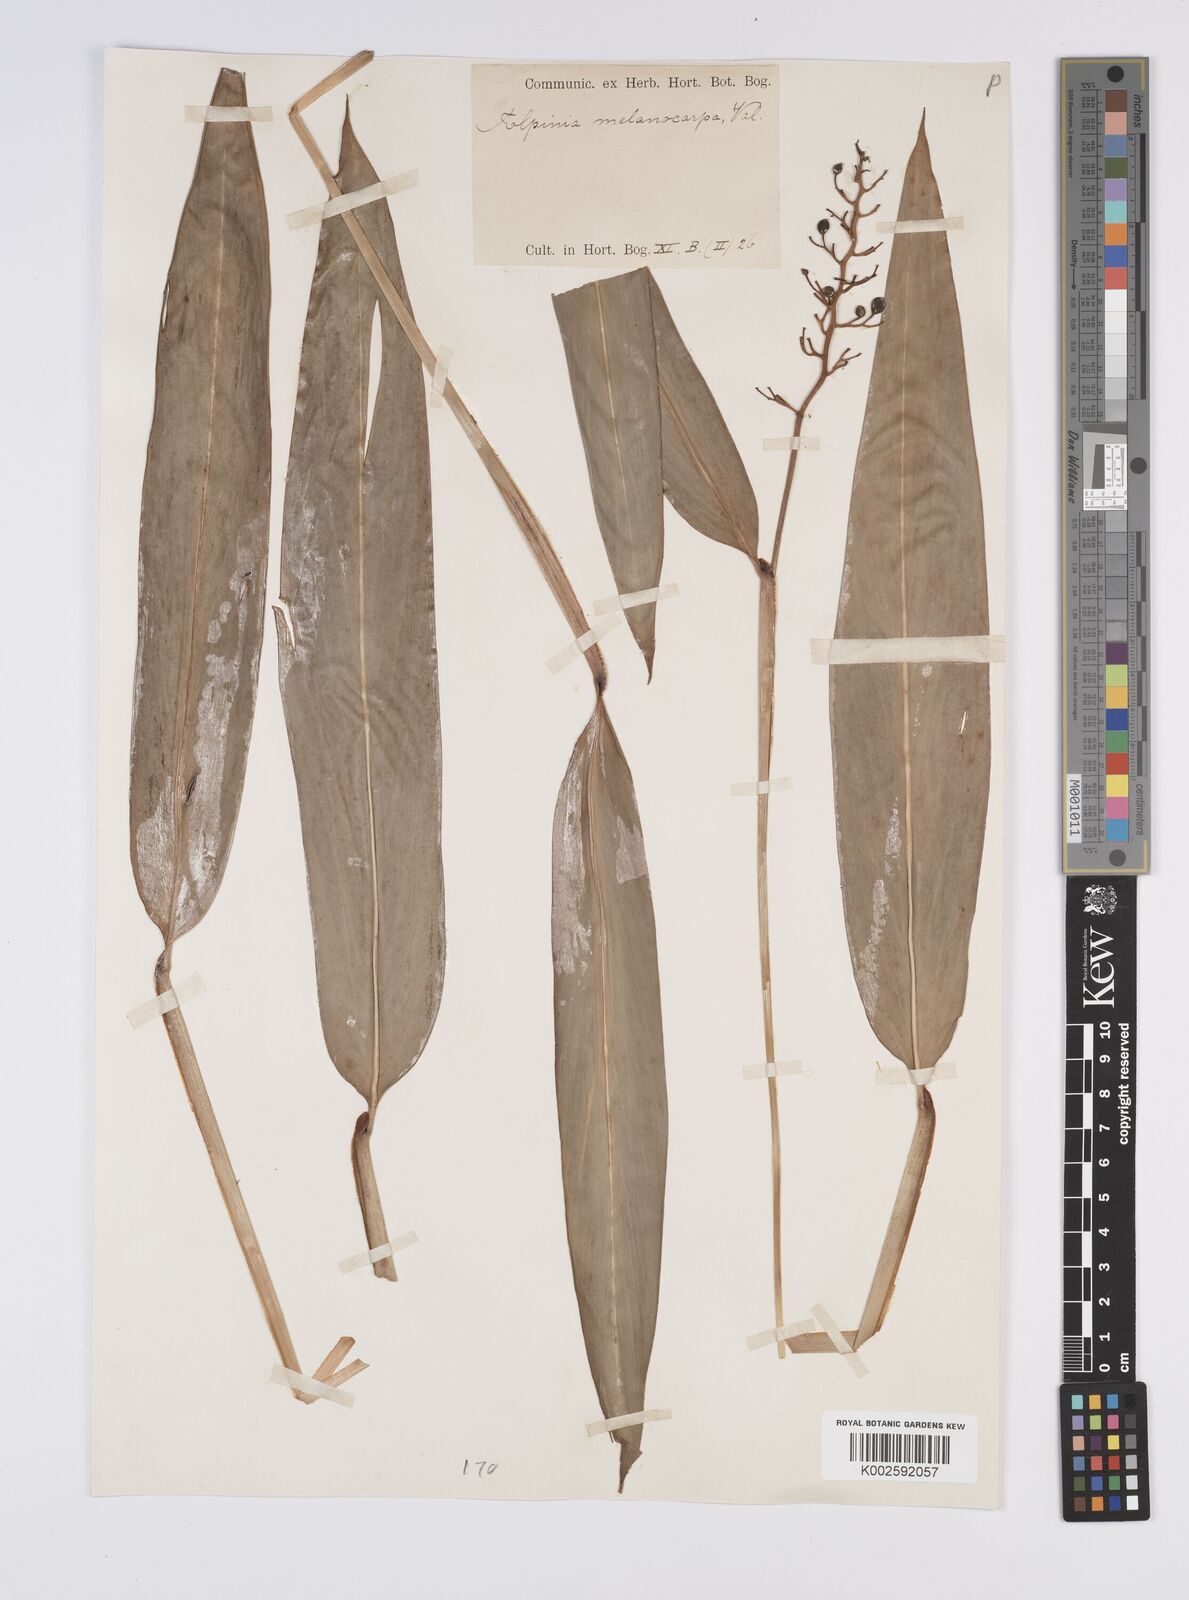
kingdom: Plantae
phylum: Tracheophyta
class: Liliopsida
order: Zingiberales
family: Zingiberaceae
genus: Alpinia
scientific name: Alpinia aquatica
